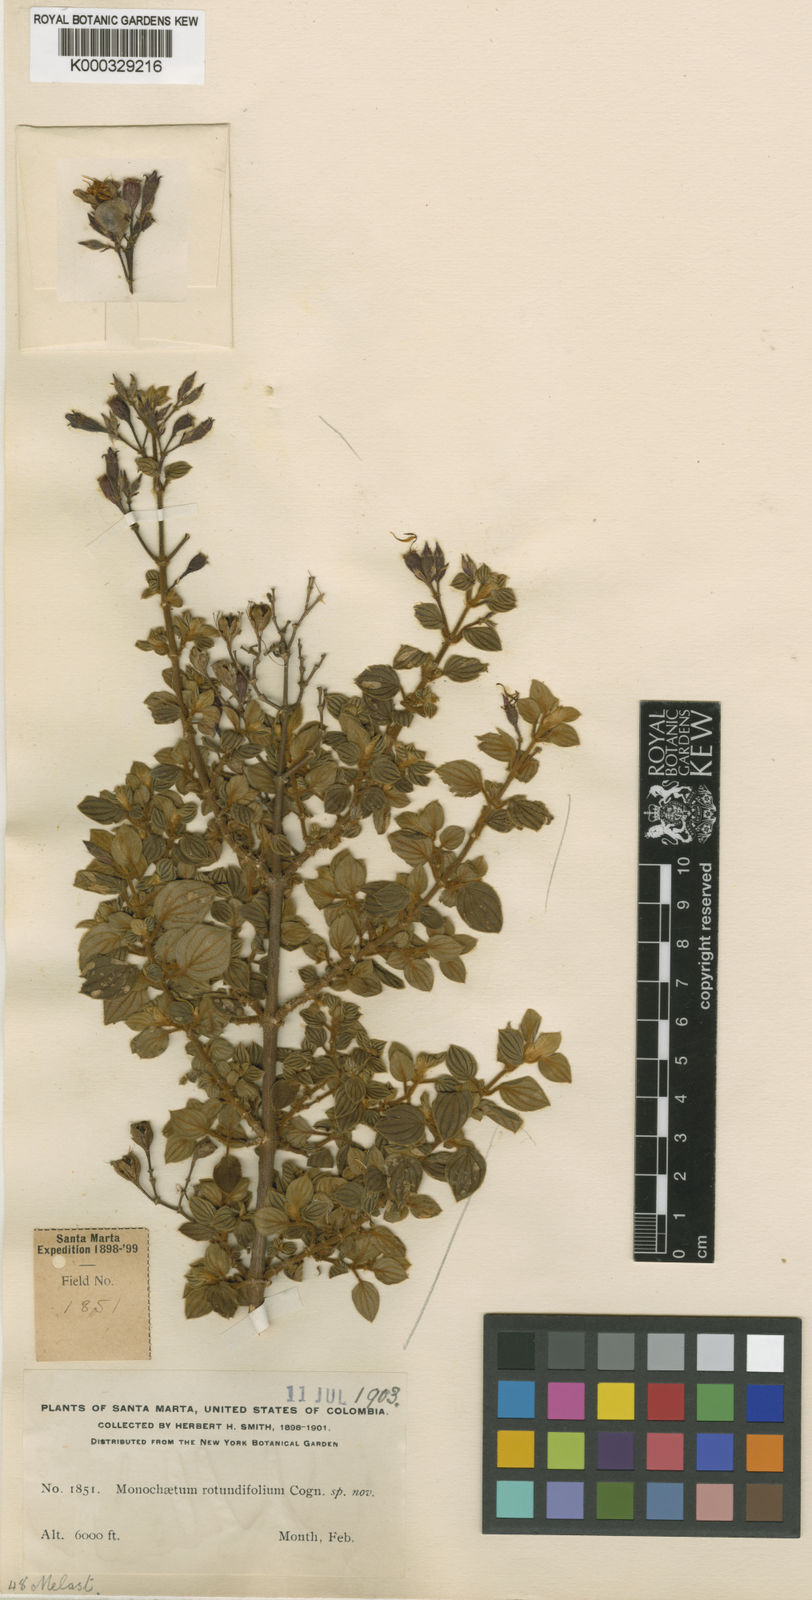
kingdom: Plantae
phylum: Tracheophyta
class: Magnoliopsida
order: Myrtales
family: Melastomataceae
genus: Monochaetum
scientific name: Monochaetum rotundifolium
